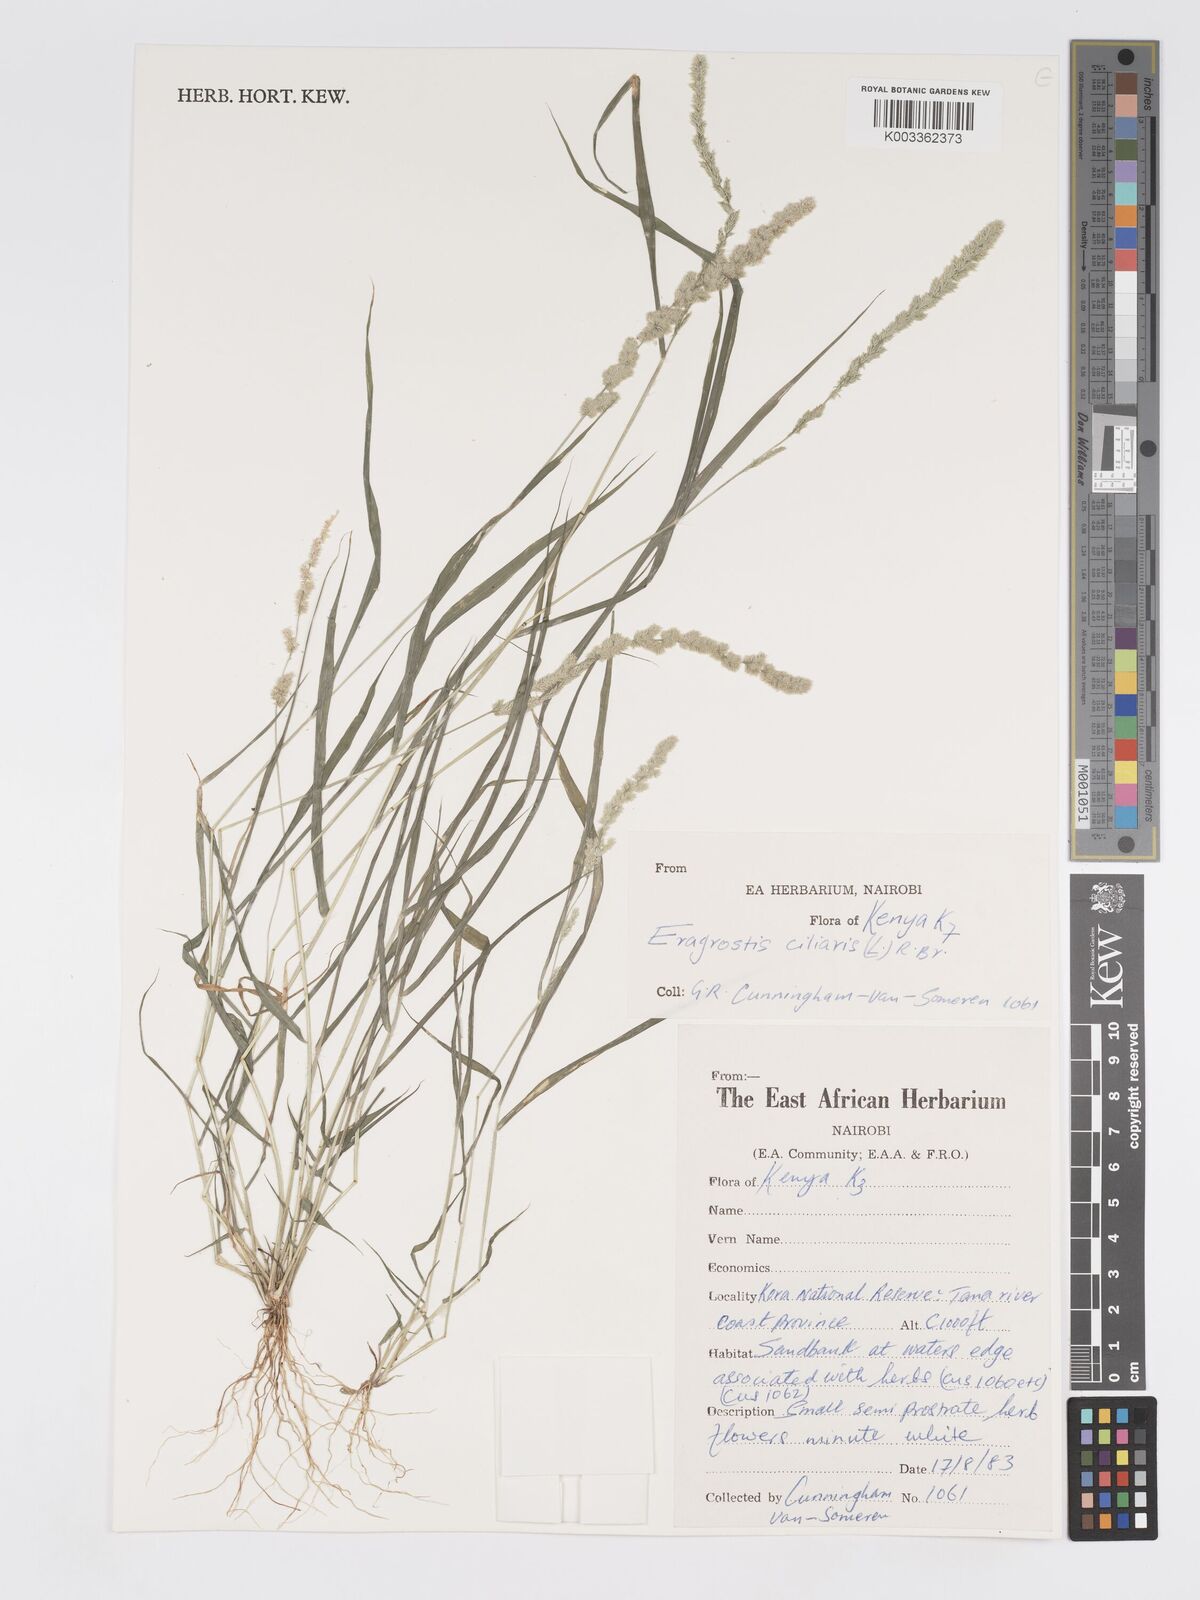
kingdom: Plantae
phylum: Tracheophyta
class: Liliopsida
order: Poales
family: Poaceae
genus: Eragrostis
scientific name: Eragrostis ciliaris
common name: Gophertail lovegrass
